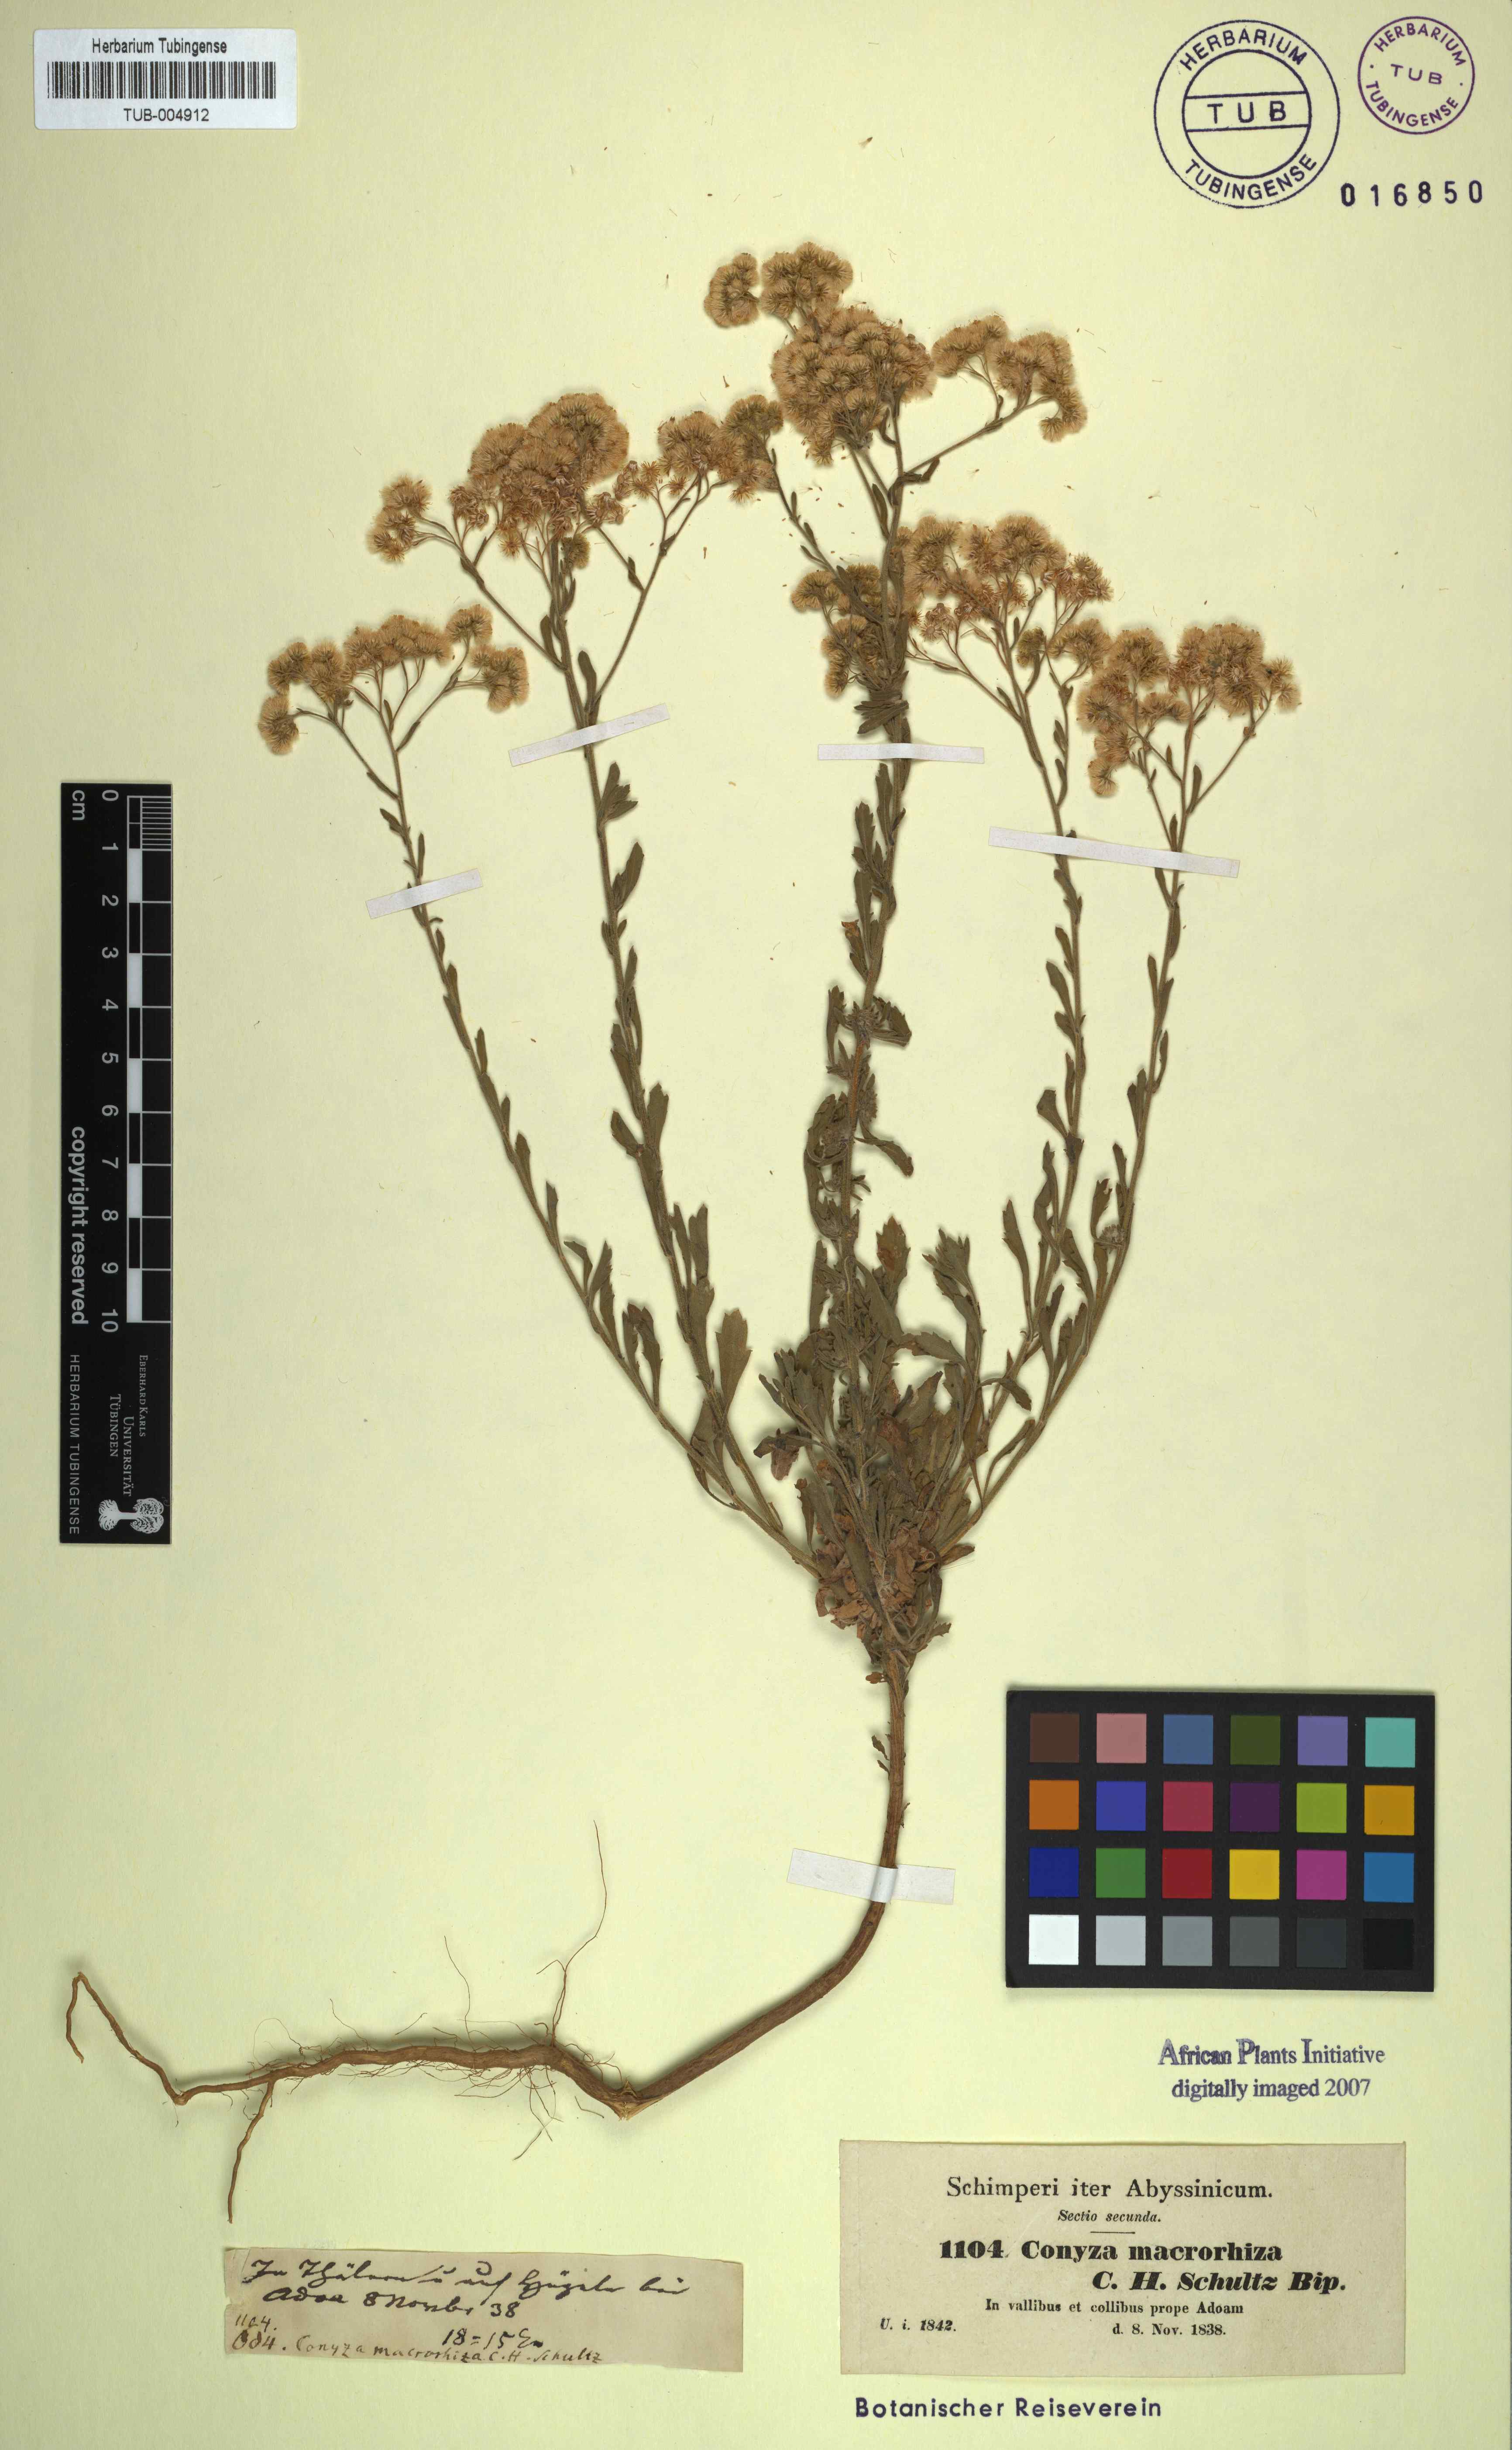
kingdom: Plantae
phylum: Tracheophyta
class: Magnoliopsida
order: Asterales
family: Asteraceae
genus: Nidorella
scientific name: Nidorella triloba
